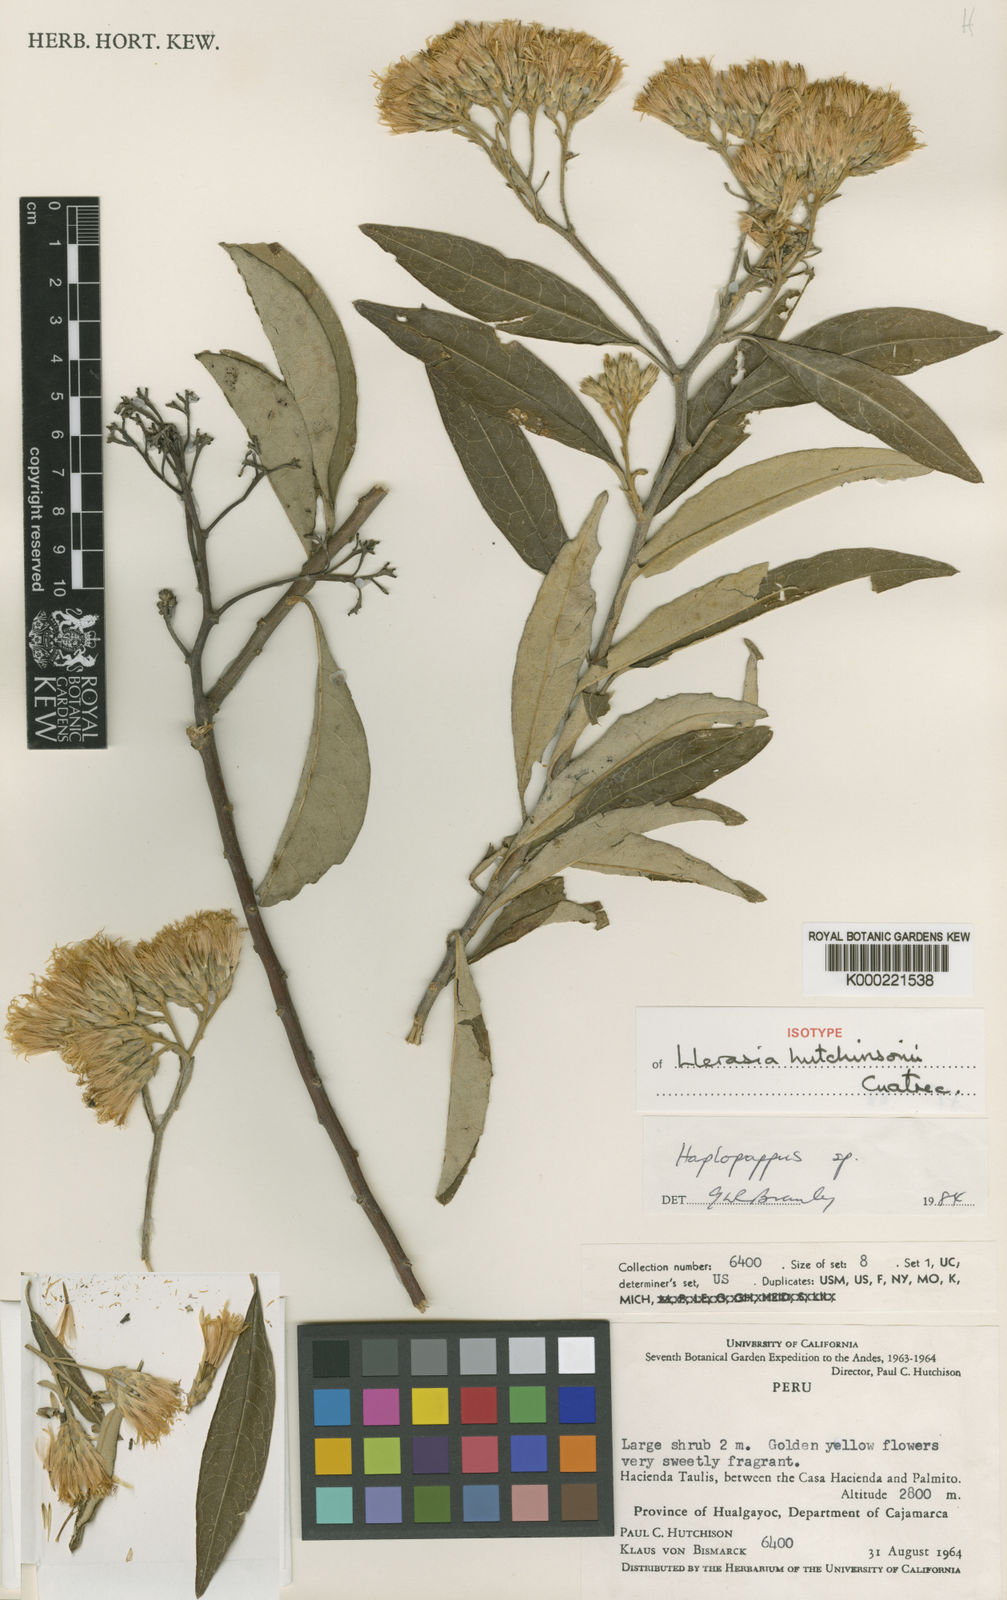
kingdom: Plantae
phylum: Tracheophyta
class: Magnoliopsida
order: Asterales
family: Asteraceae
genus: Llerasia
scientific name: Llerasia hutchisonii
